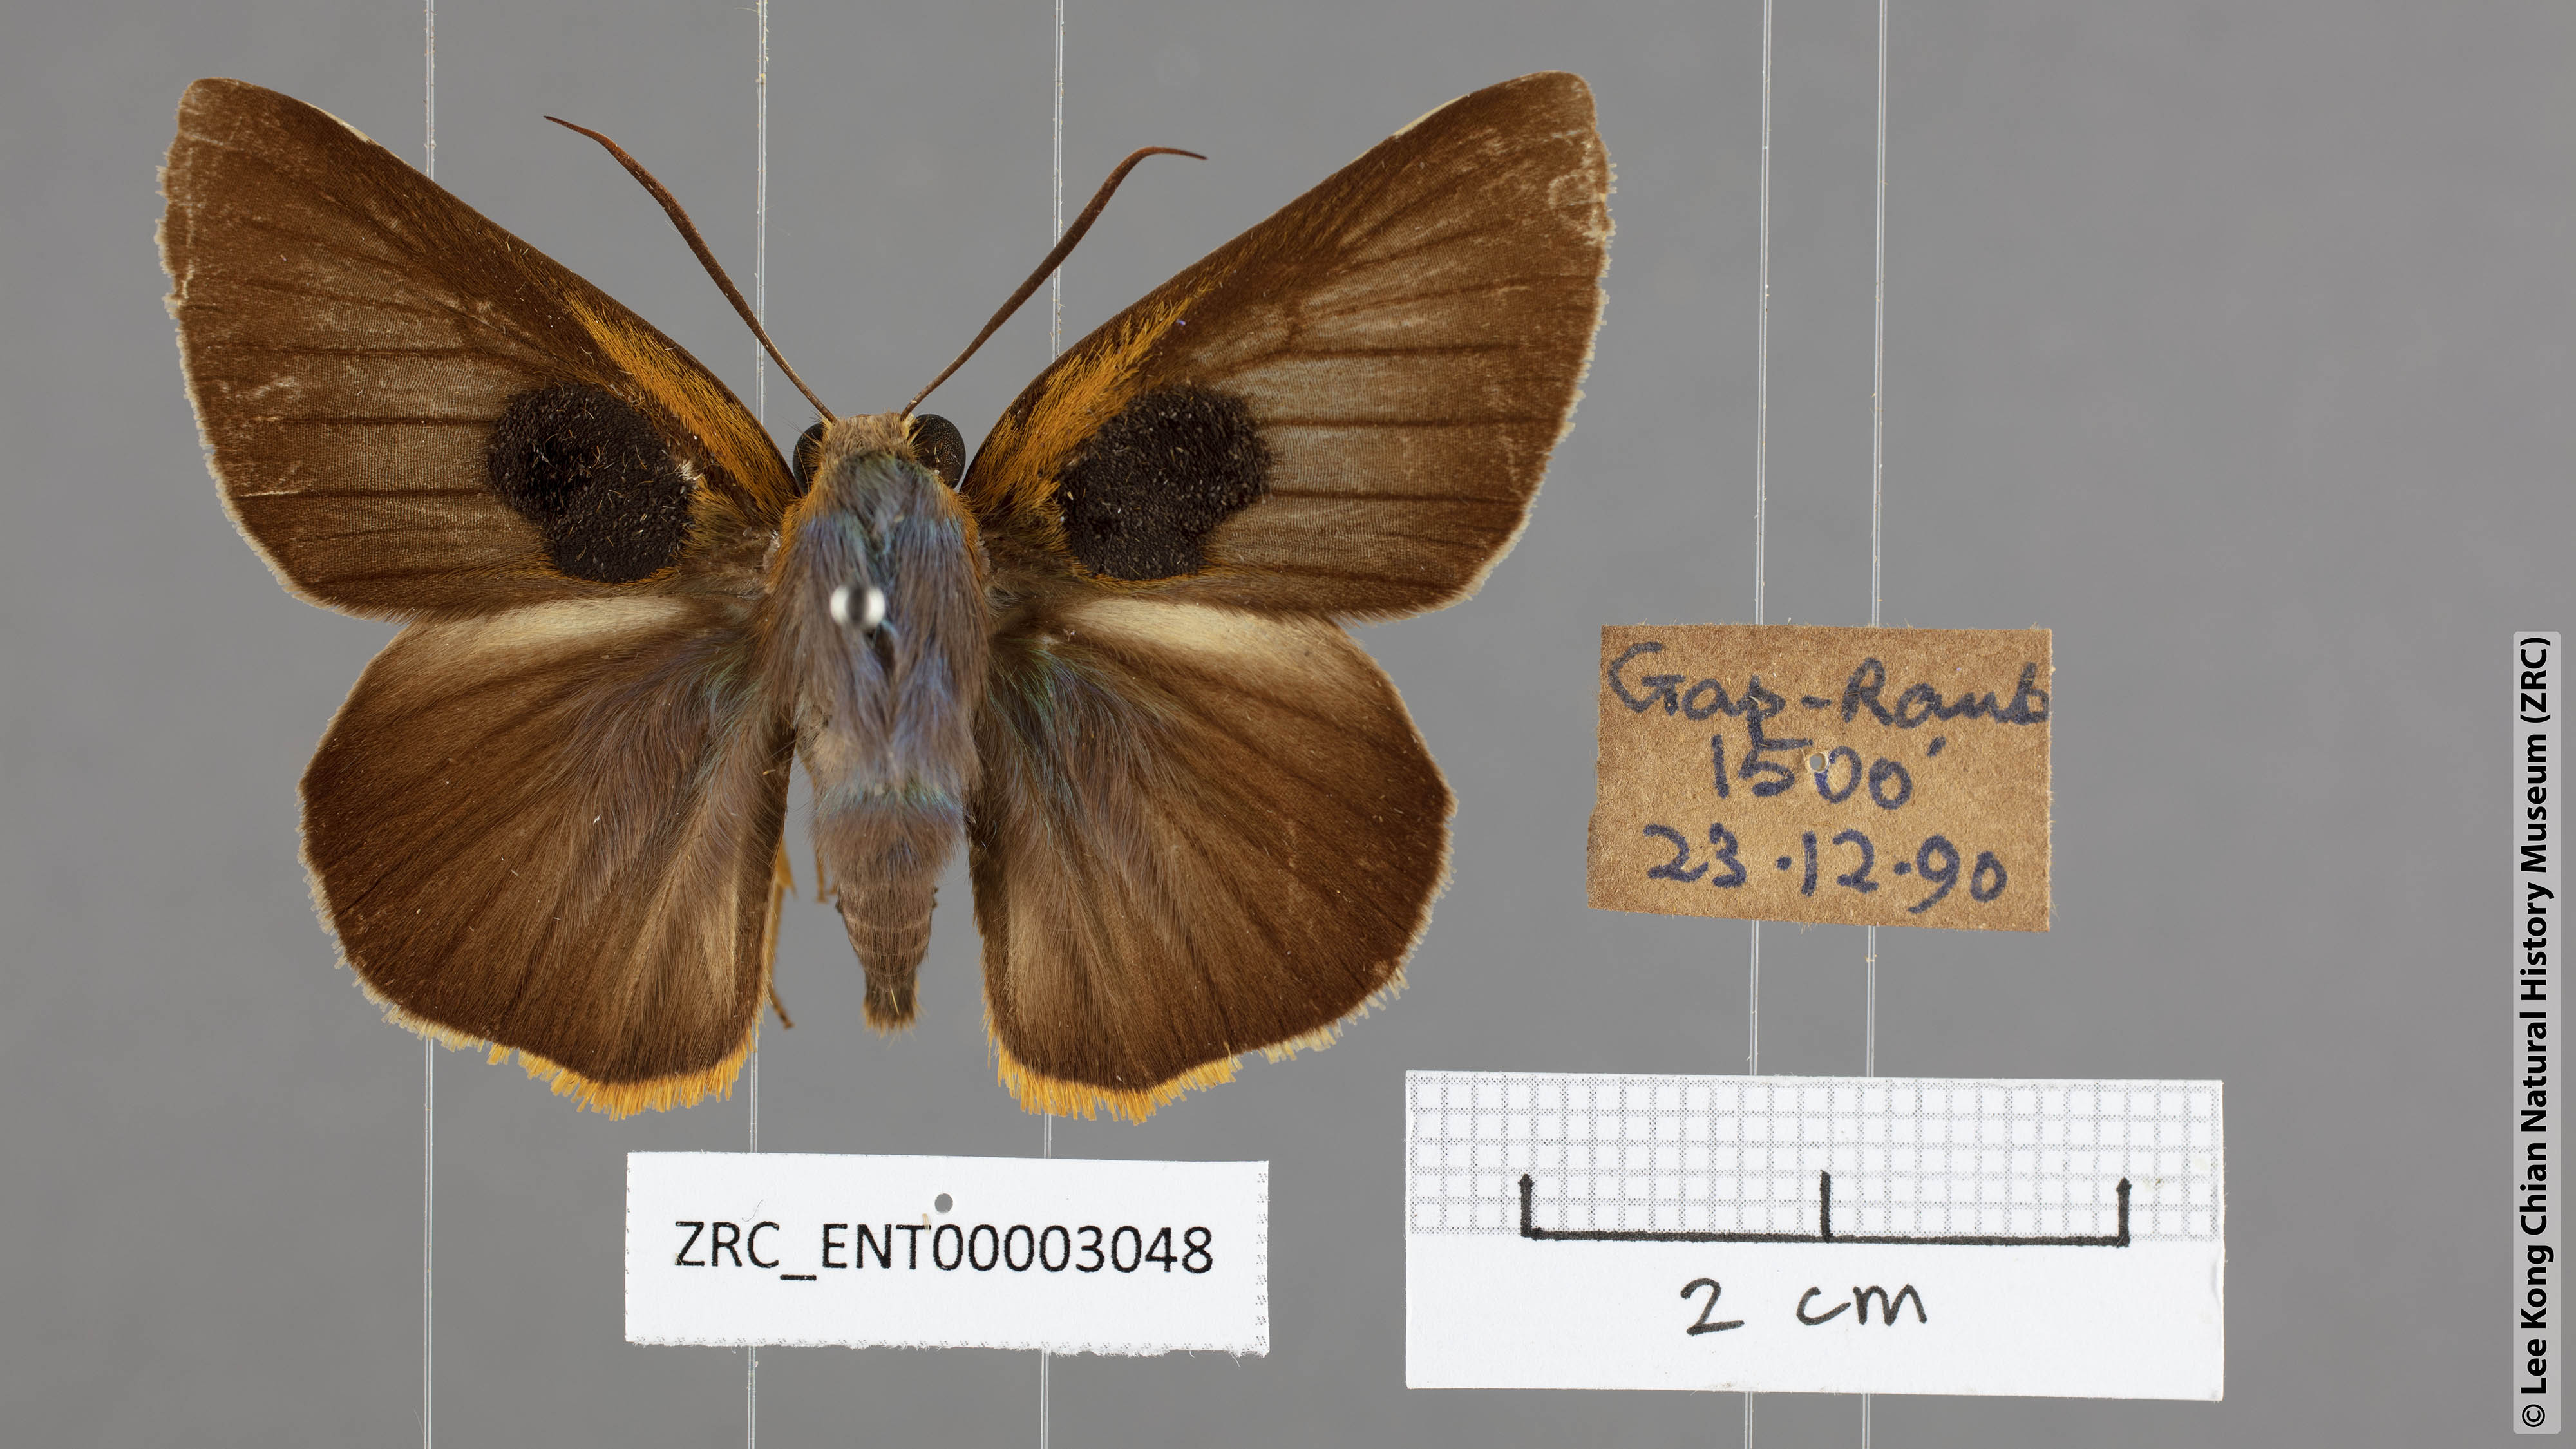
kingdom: Animalia
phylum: Arthropoda
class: Insecta
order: Lepidoptera
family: Hesperiidae
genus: Bibasis
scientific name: Bibasis Burara tuckeri
